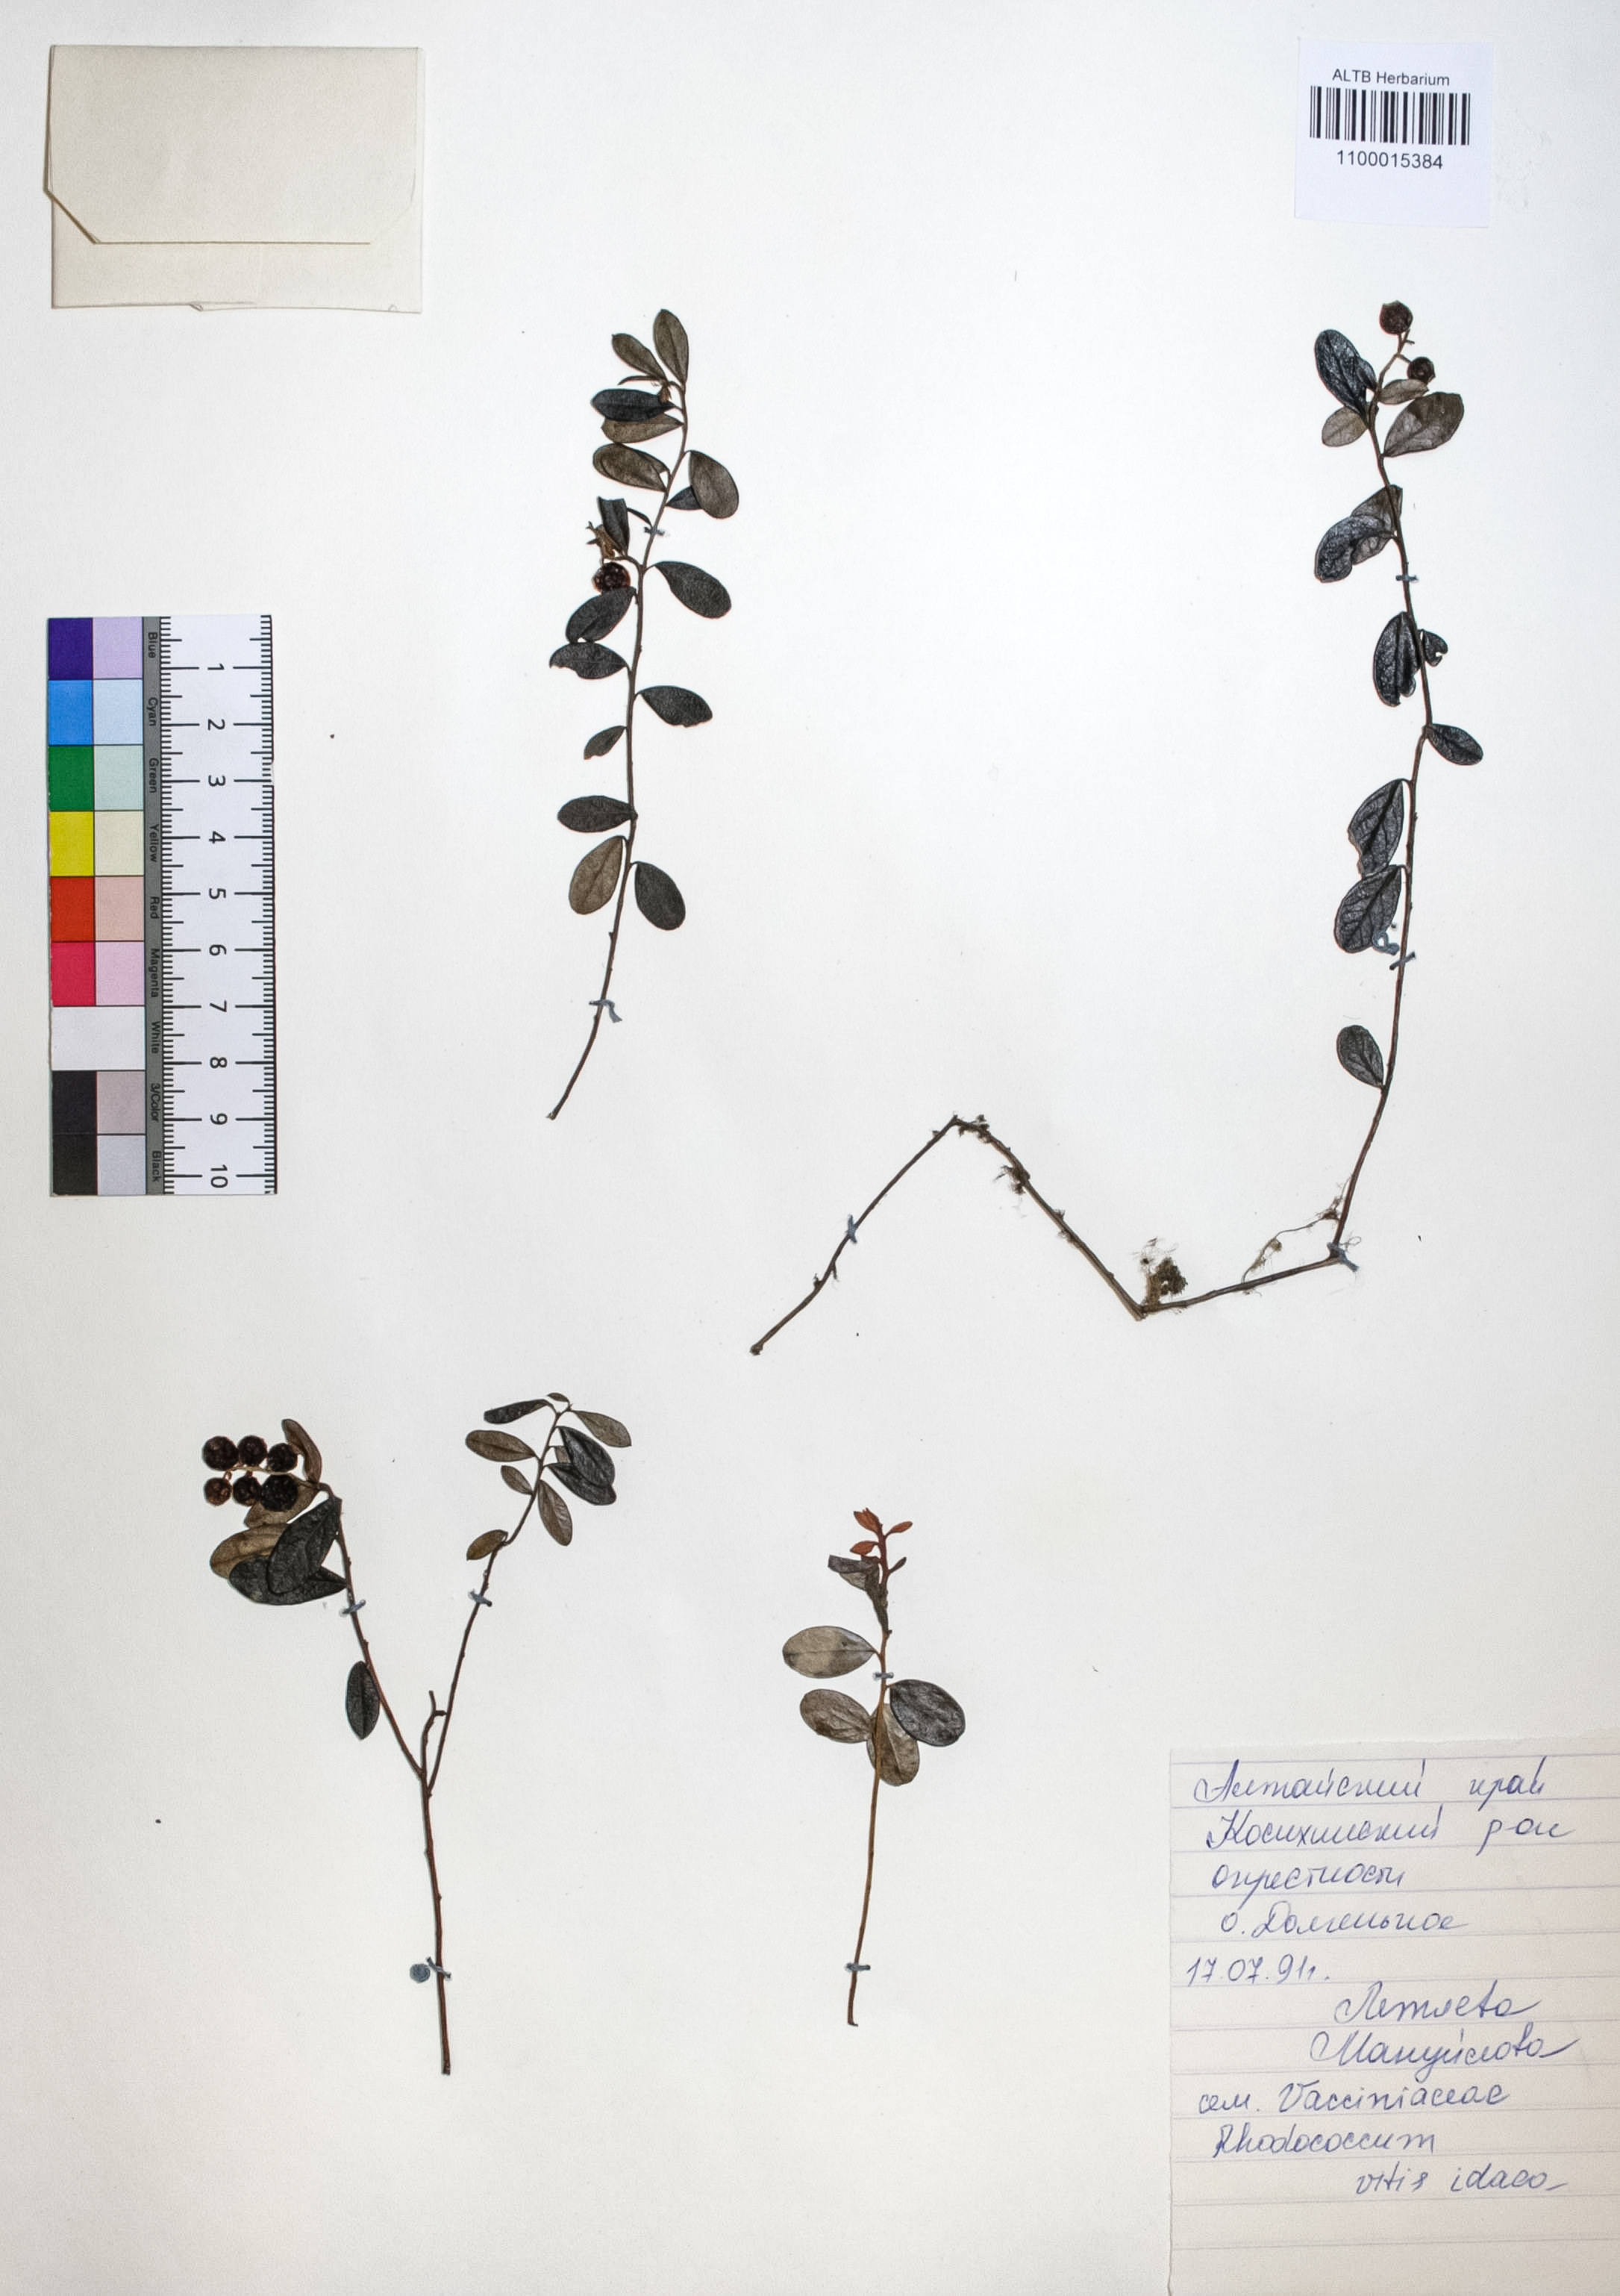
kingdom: Plantae
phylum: Tracheophyta
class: Magnoliopsida
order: Ericales
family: Ericaceae
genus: Vaccinium
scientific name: Vaccinium vitis-idaea
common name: Cowberry
